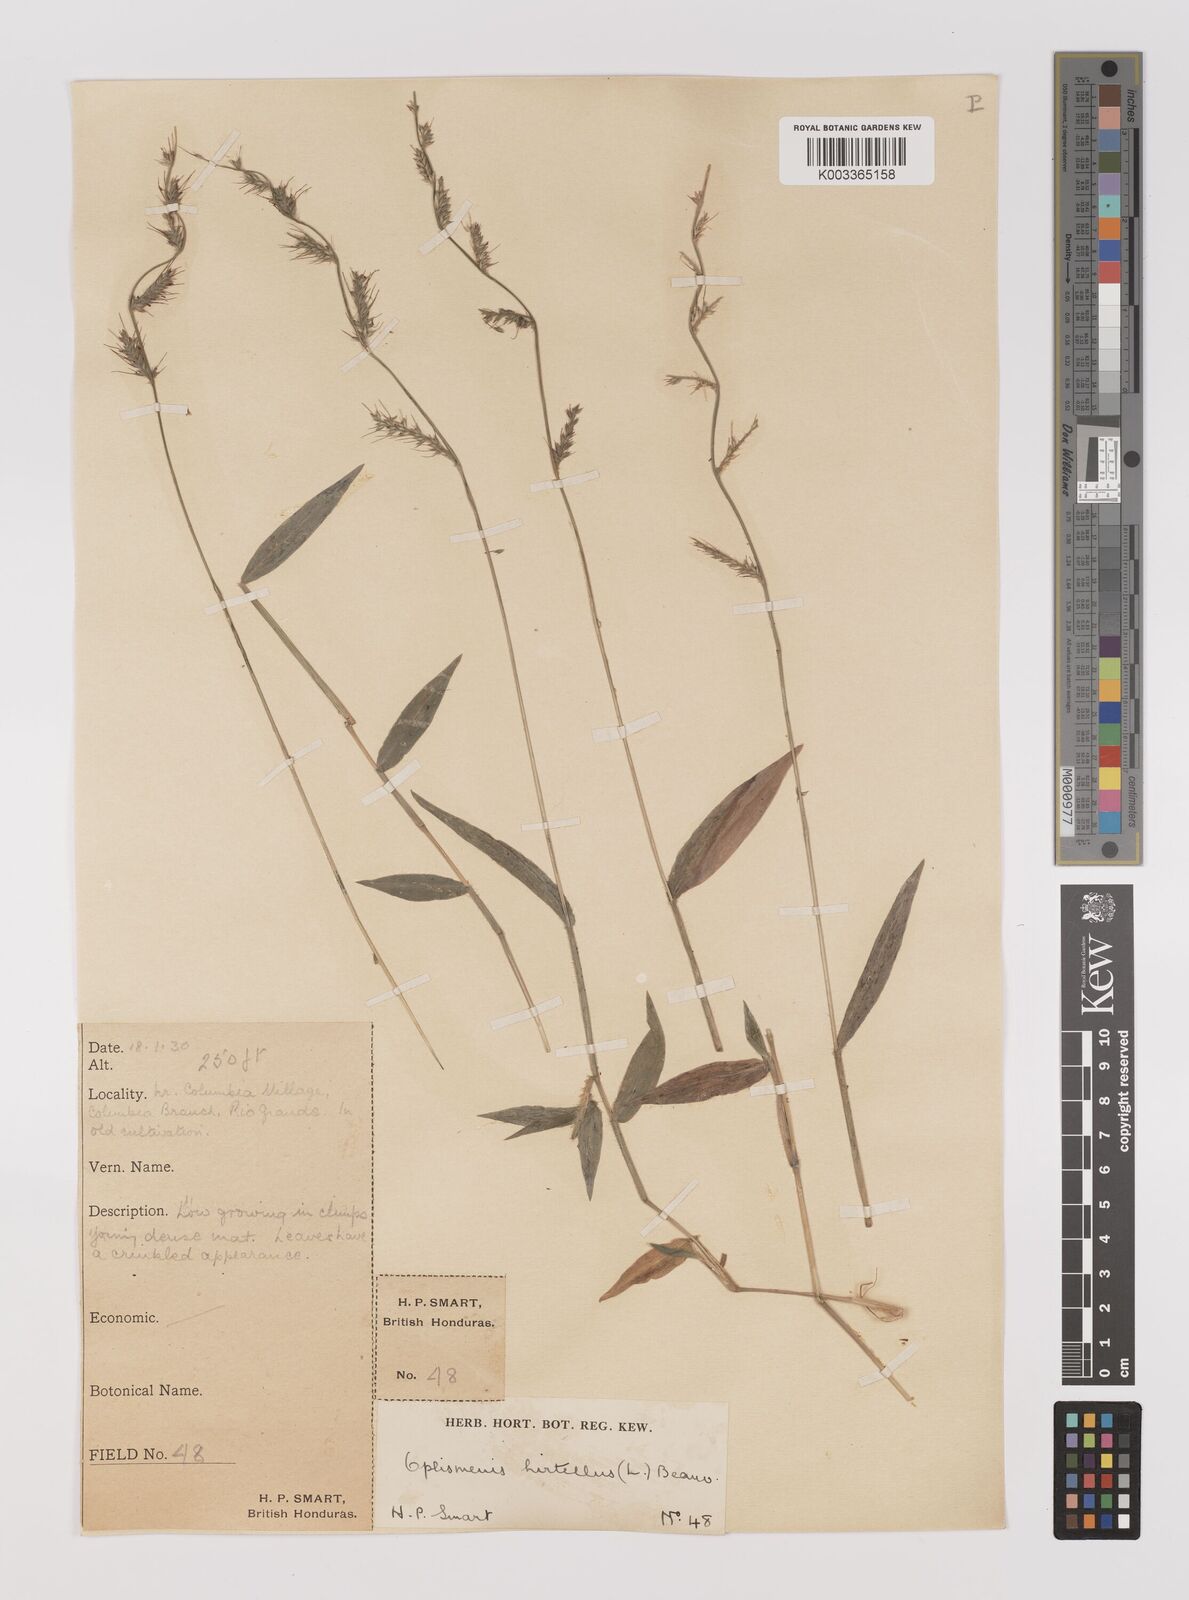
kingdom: Plantae
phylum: Tracheophyta
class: Liliopsida
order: Poales
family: Poaceae
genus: Oplismenus
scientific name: Oplismenus hirtellus
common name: Basketgrass
